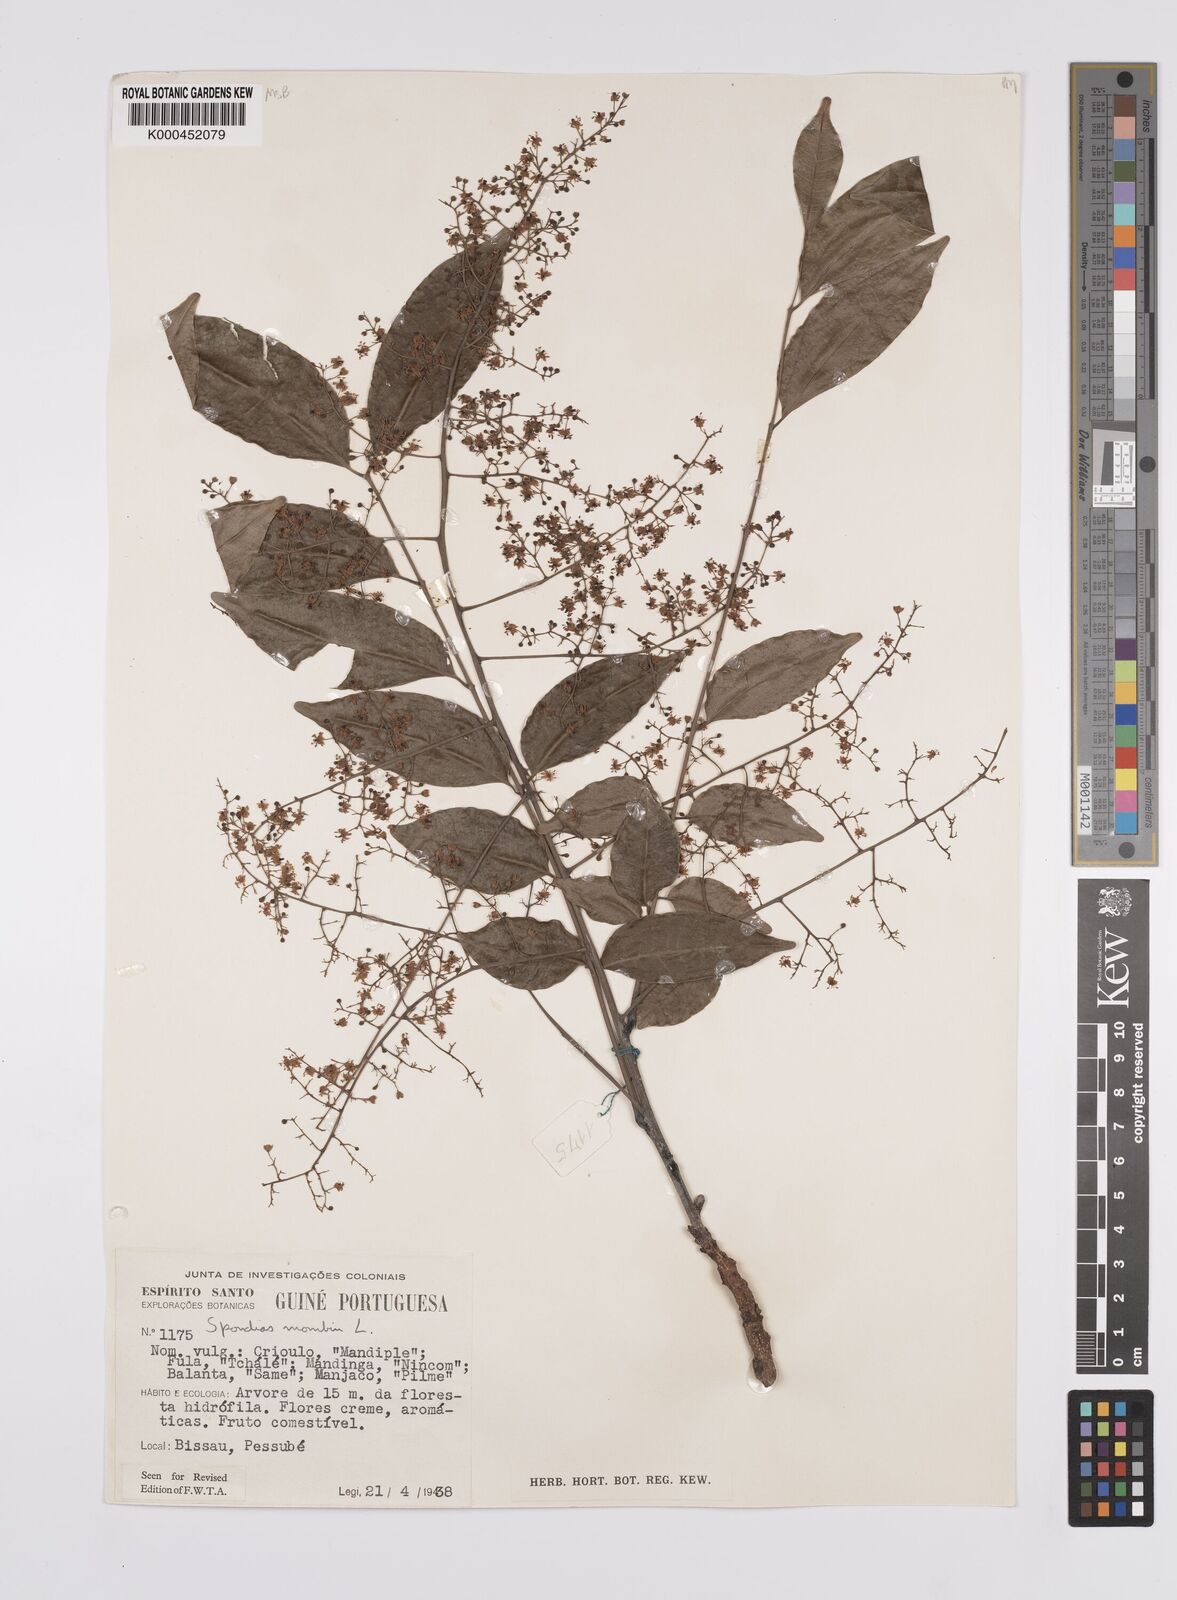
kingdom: Plantae
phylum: Tracheophyta
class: Magnoliopsida
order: Sapindales
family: Anacardiaceae
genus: Spondias
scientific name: Spondias mombin
